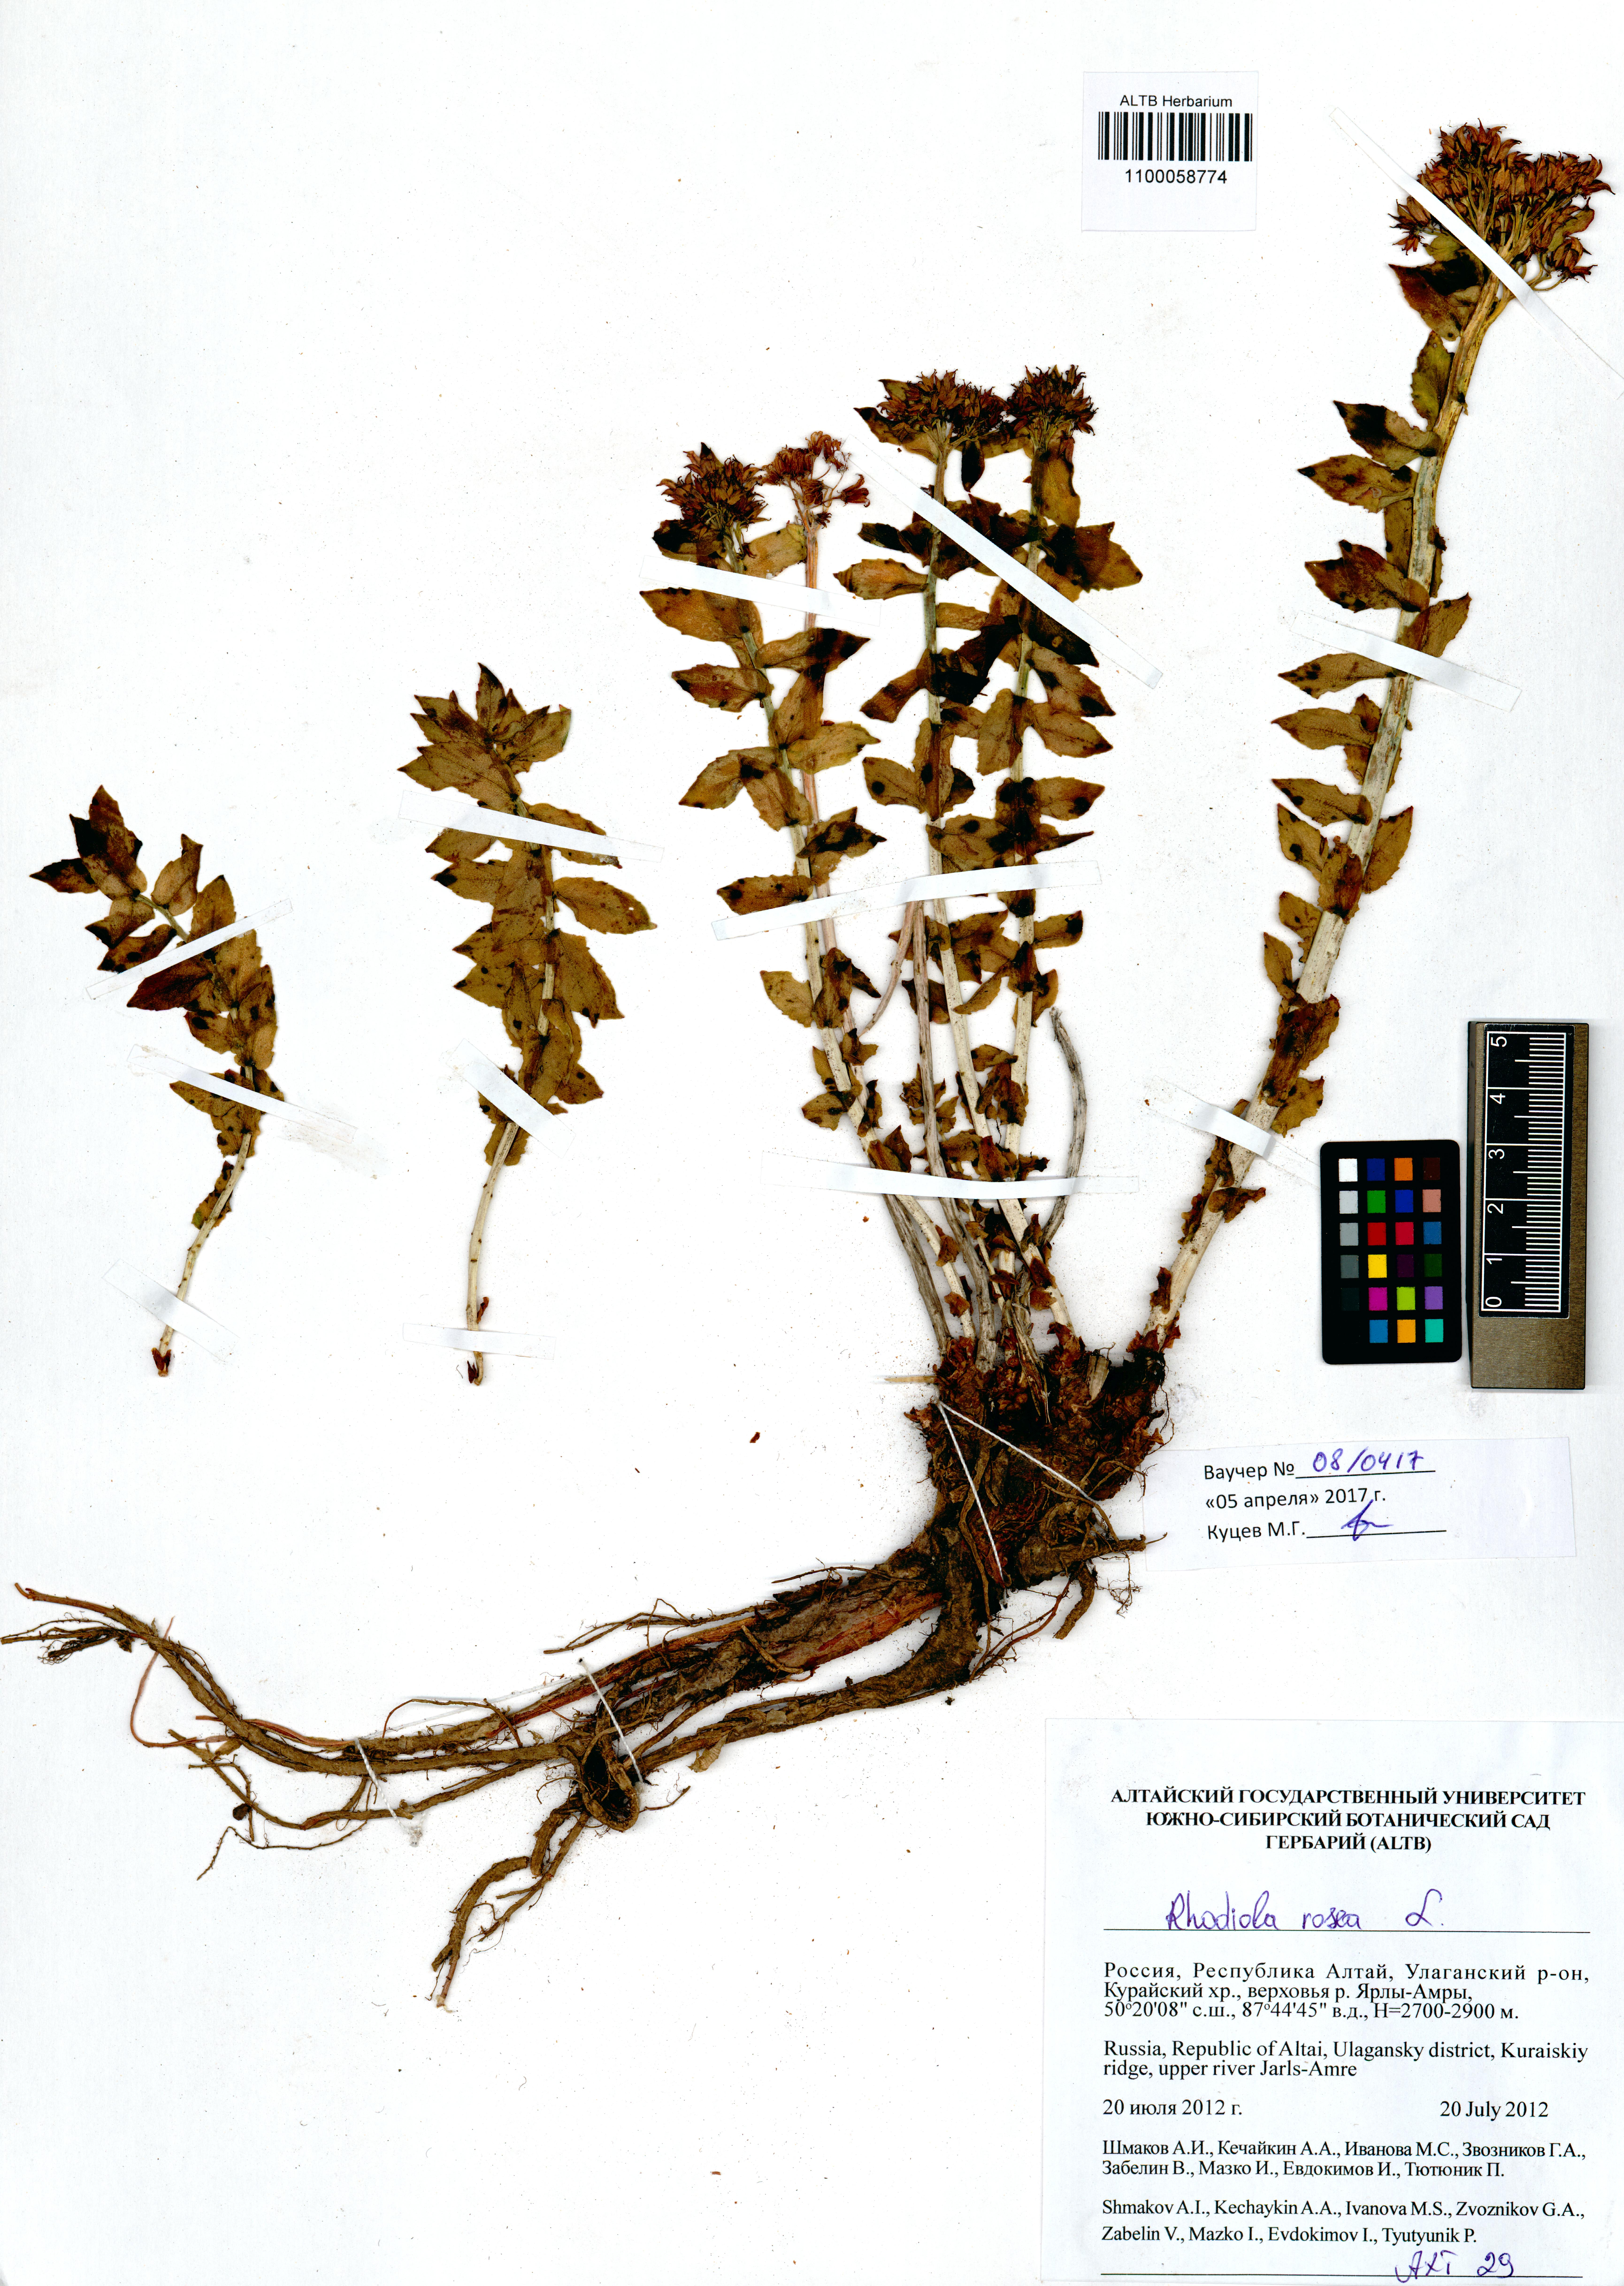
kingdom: Plantae
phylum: Tracheophyta
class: Magnoliopsida
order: Saxifragales
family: Crassulaceae
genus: Rhodiola
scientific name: Rhodiola rosea
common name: Roseroot
